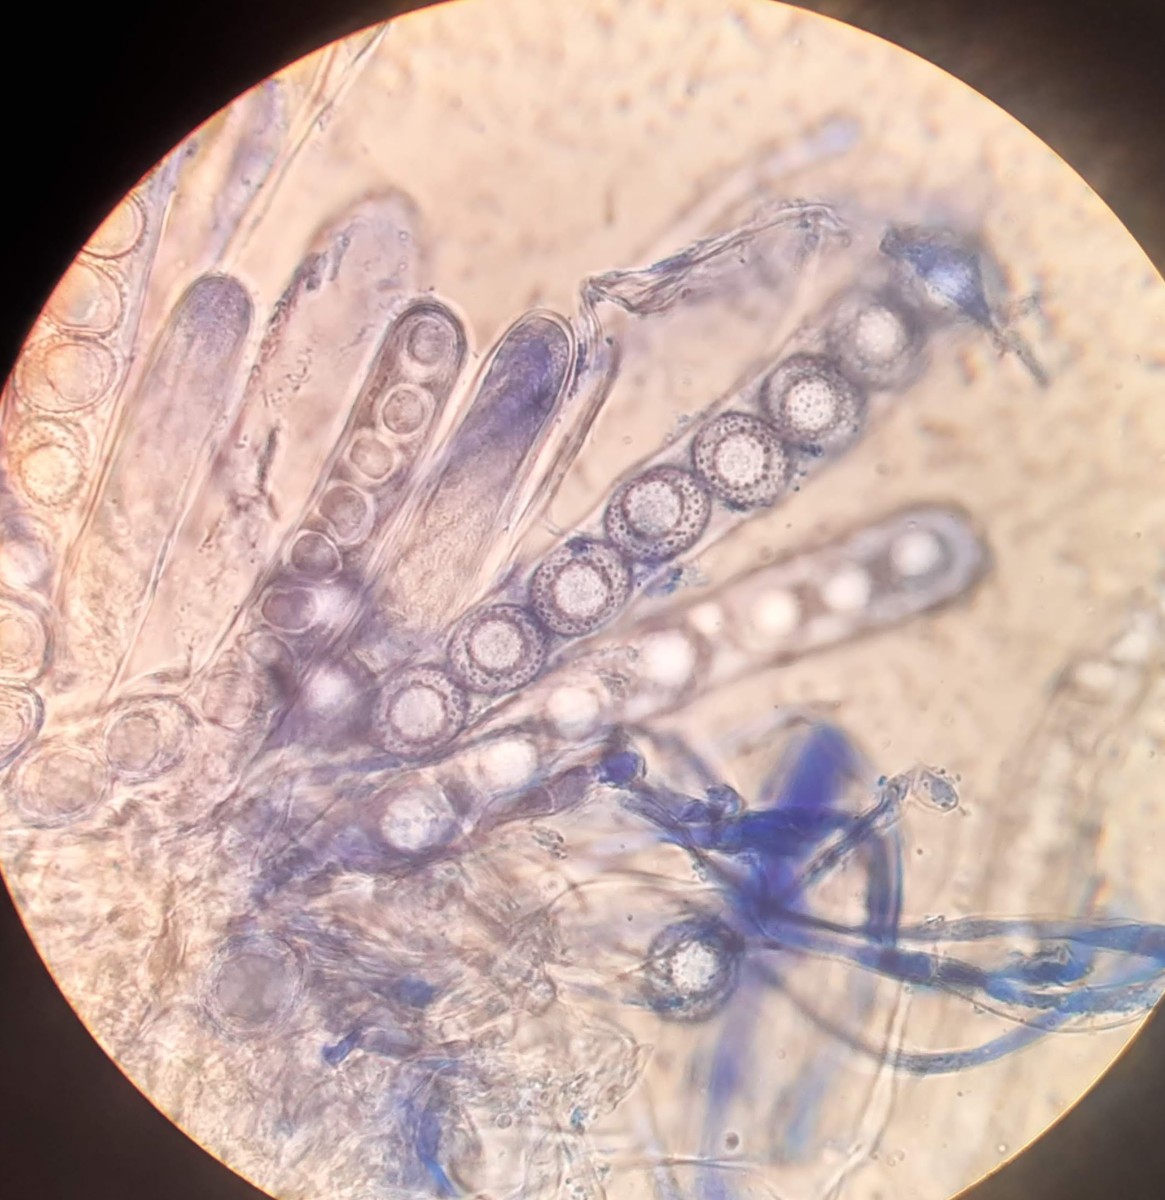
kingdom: Fungi
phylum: Ascomycota
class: Pezizomycetes
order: Pezizales
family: Pyronemataceae
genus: Octospora
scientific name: Octospora affinis
